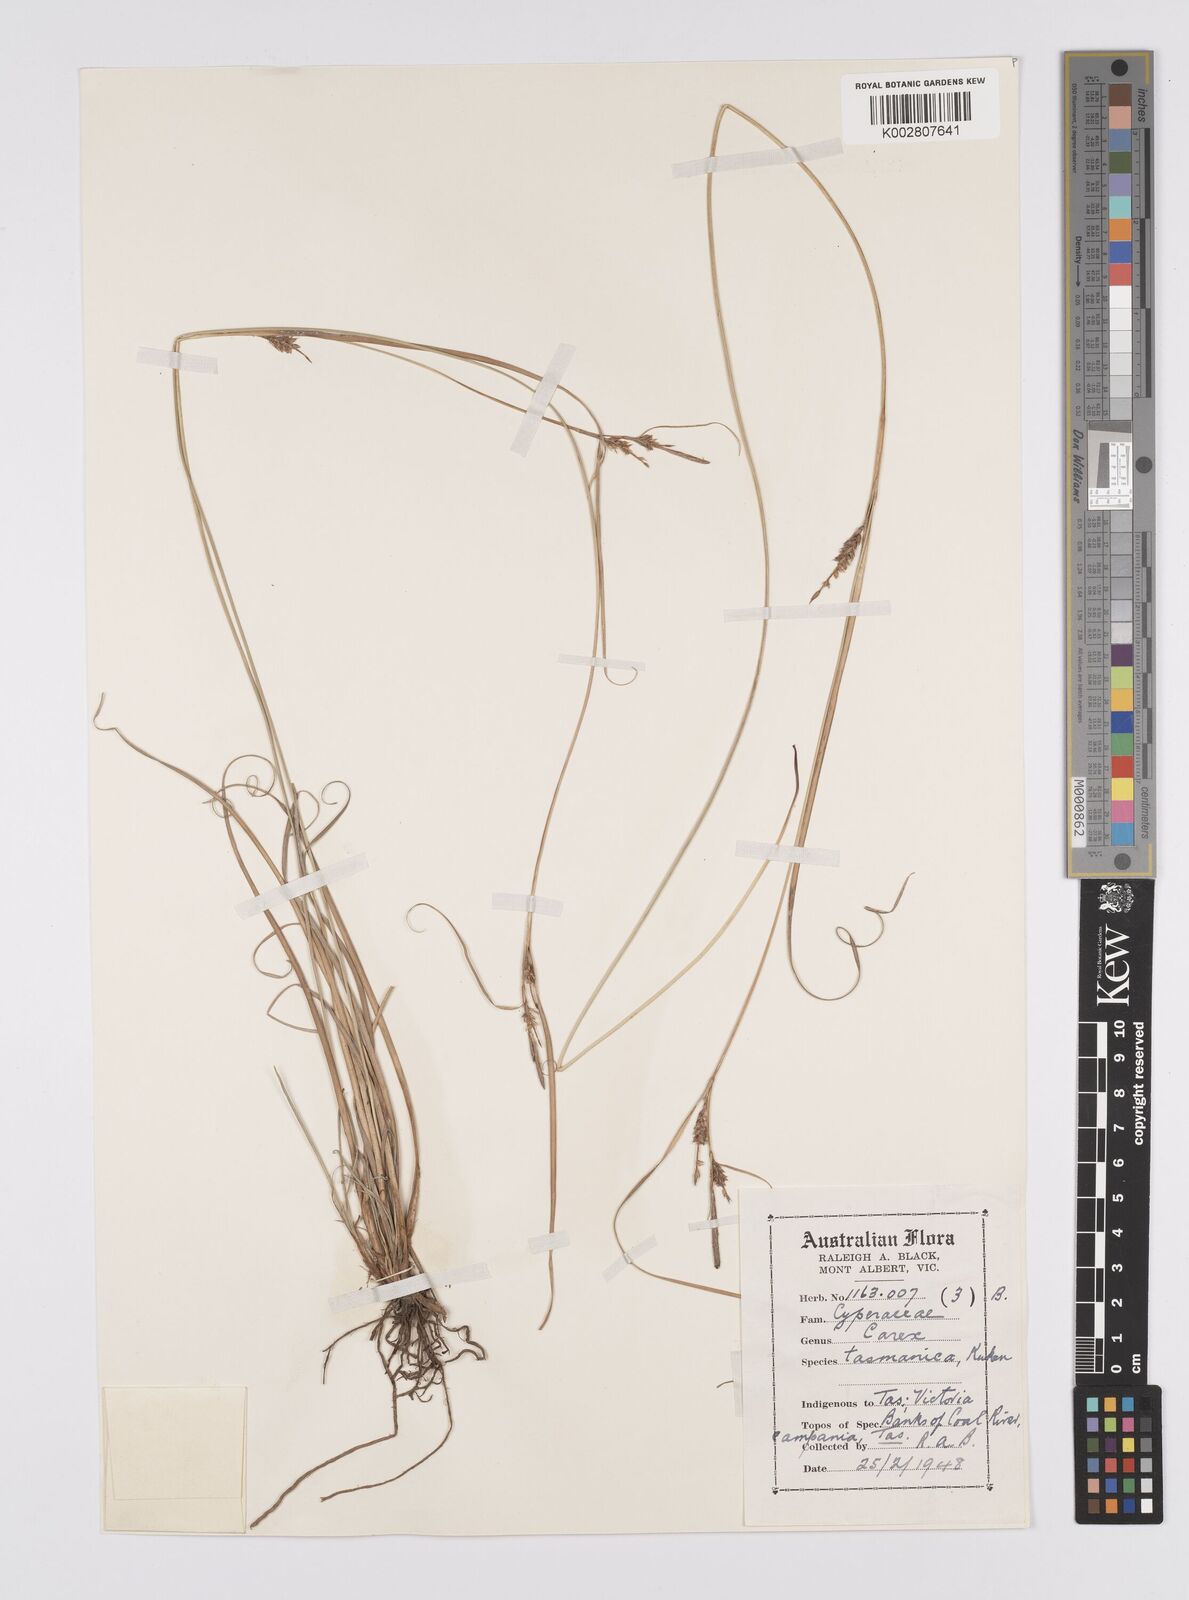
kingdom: Plantae
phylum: Tracheophyta
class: Liliopsida
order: Poales
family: Cyperaceae
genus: Carex
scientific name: Carex tasmanica
